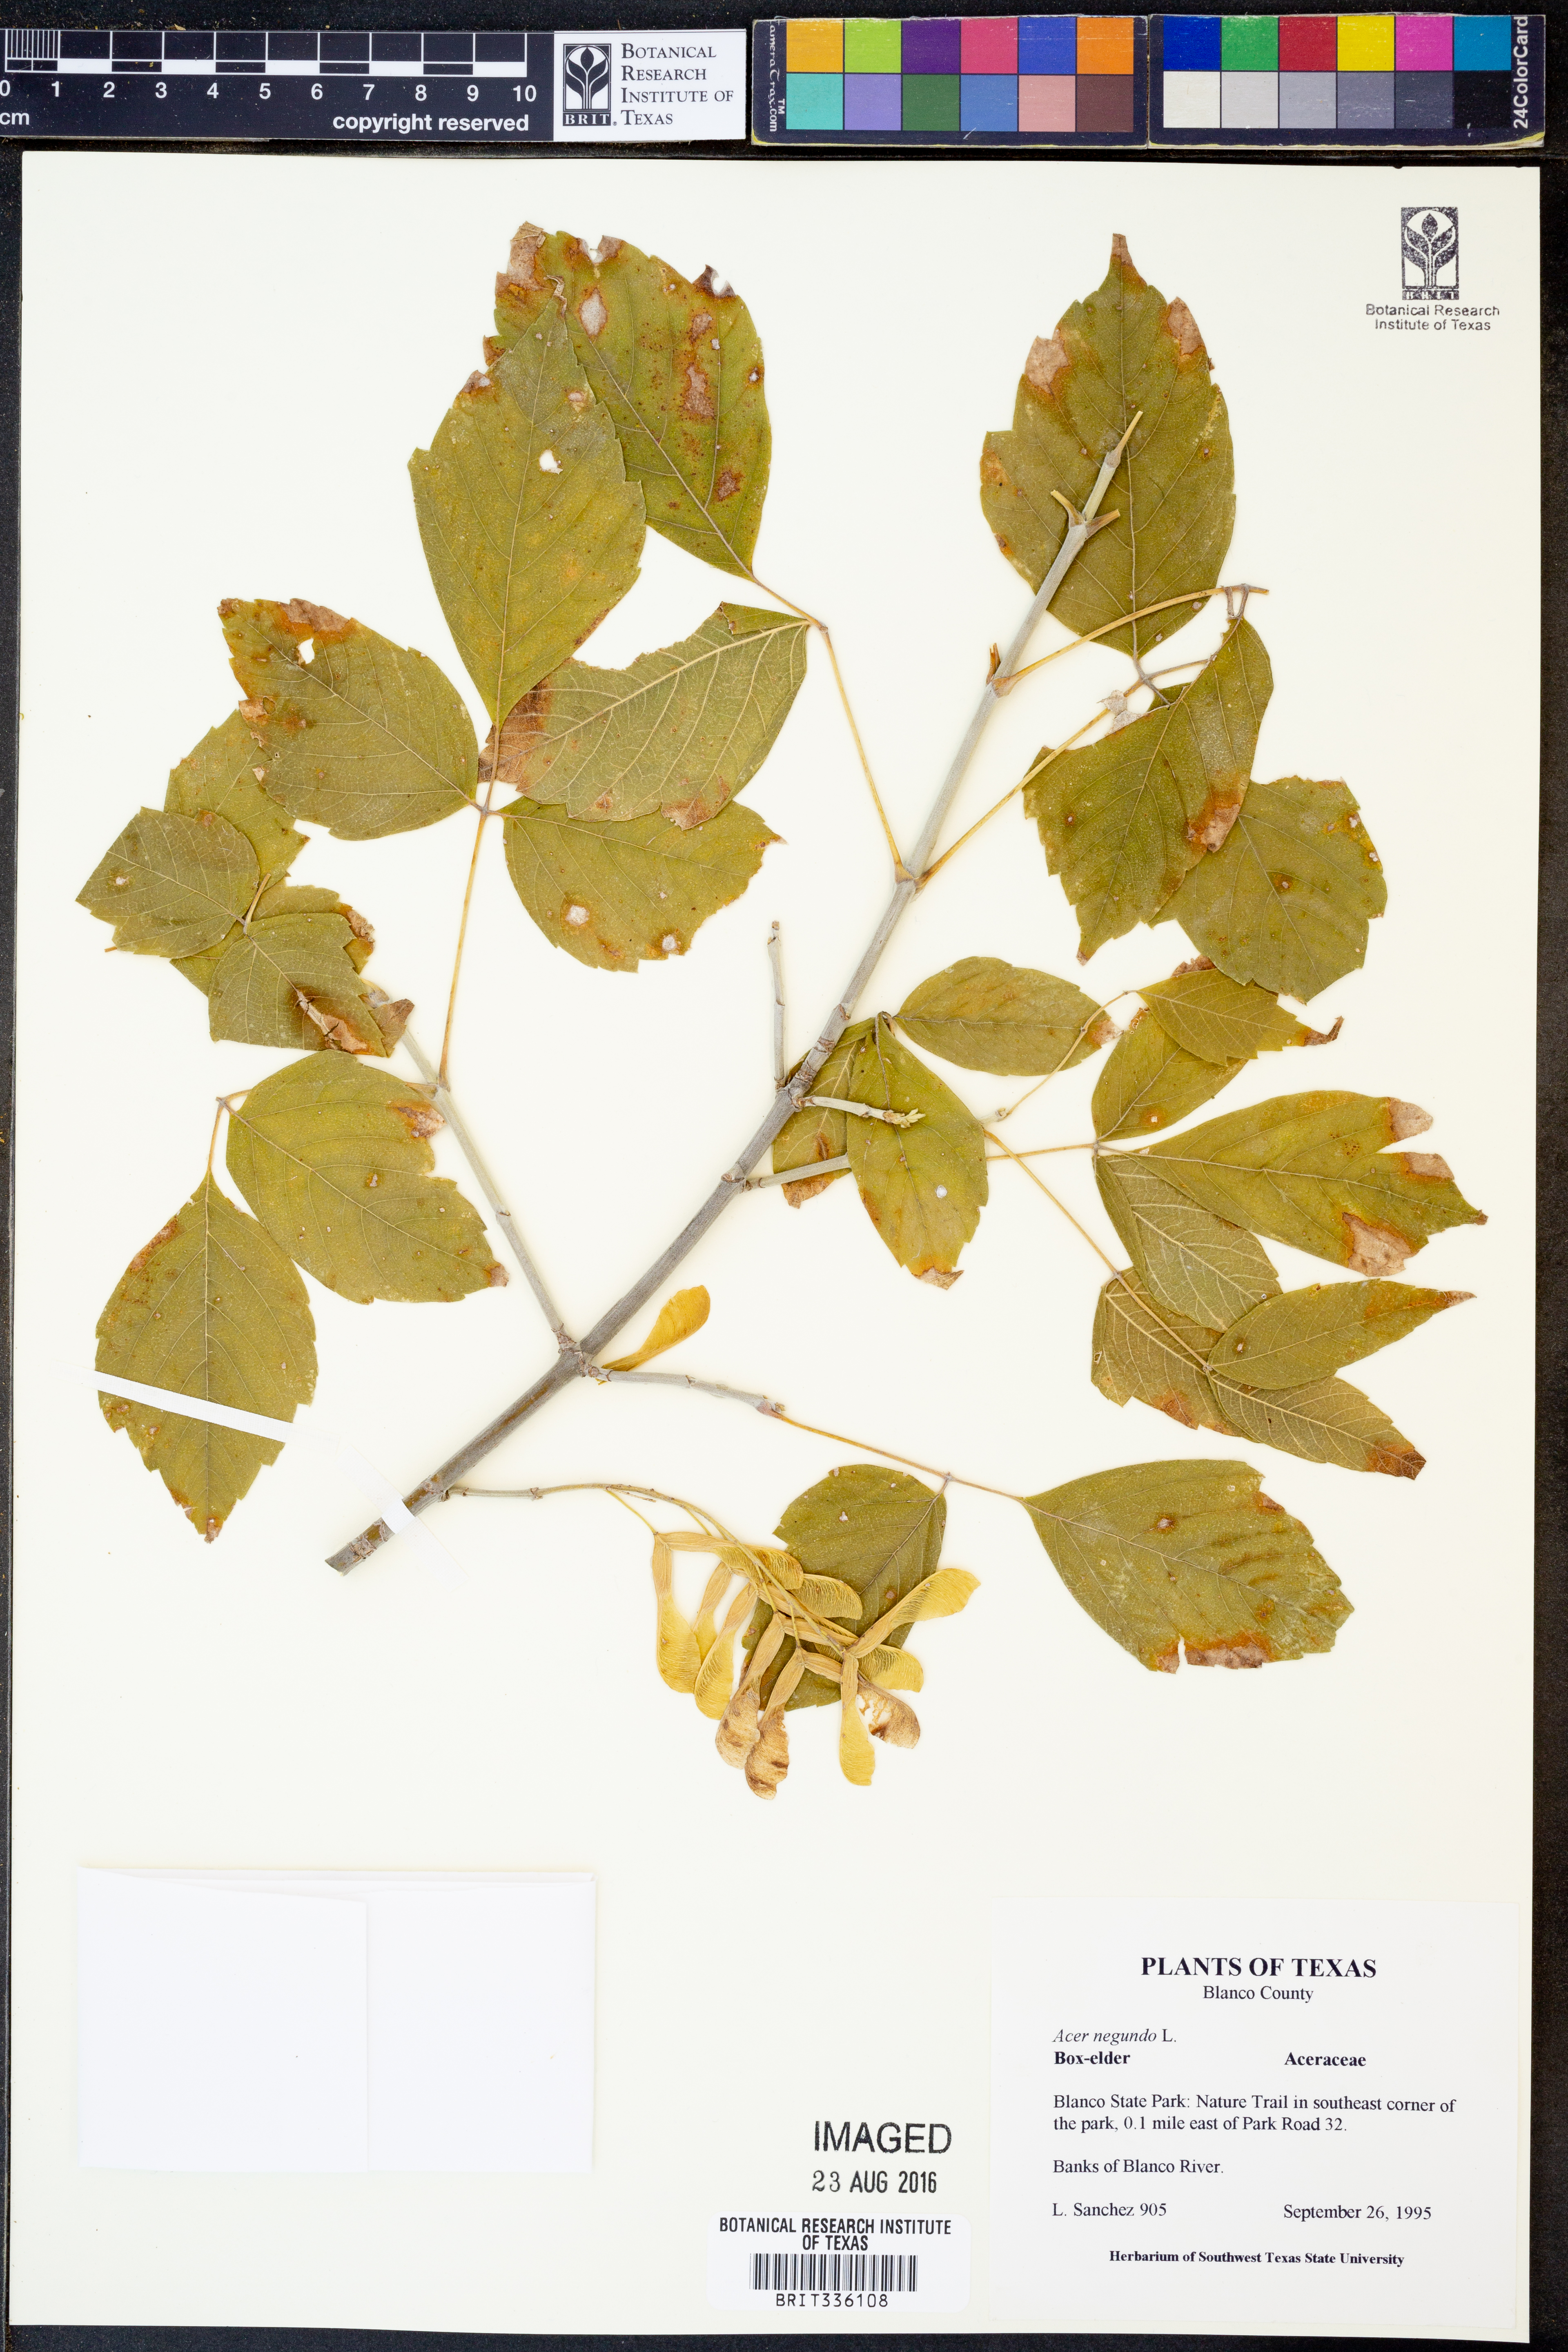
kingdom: Plantae
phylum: Tracheophyta
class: Magnoliopsida
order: Sapindales
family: Sapindaceae
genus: Acer
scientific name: Acer negundo
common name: Ashleaf maple
